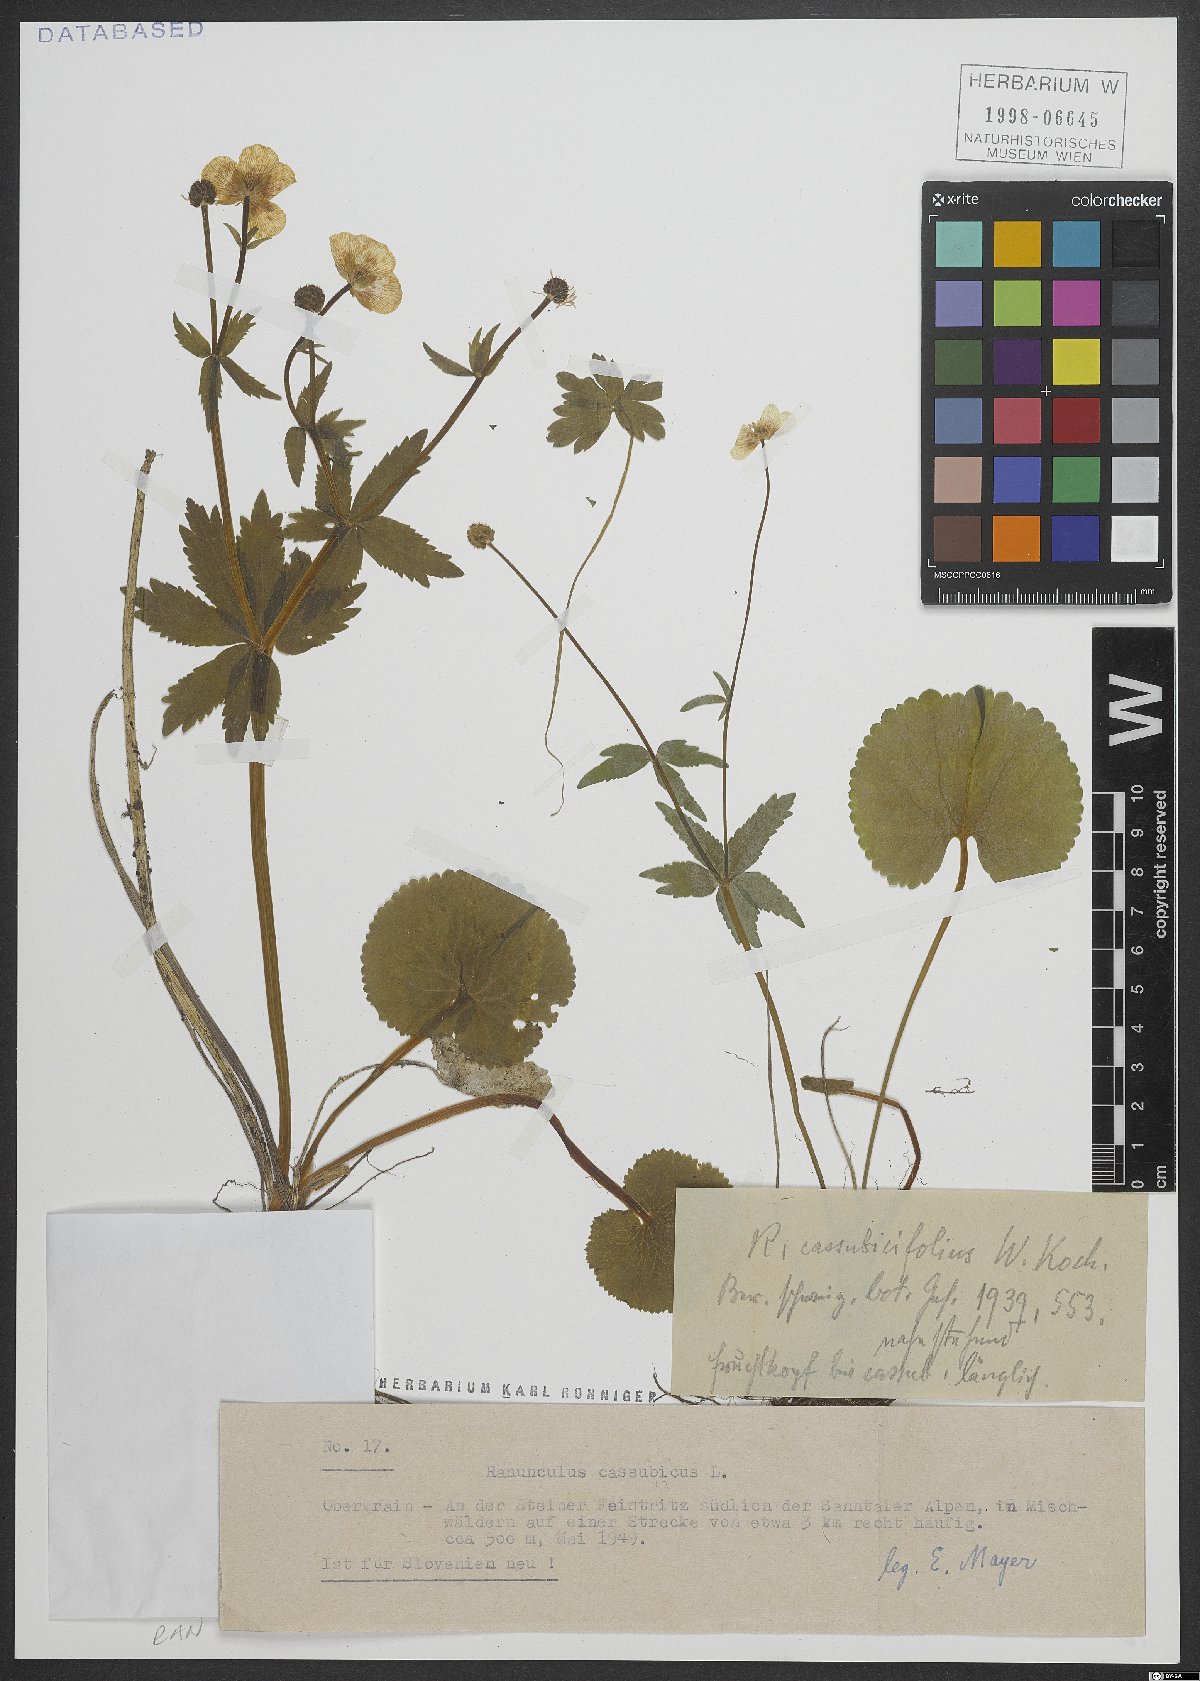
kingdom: Plantae
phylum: Tracheophyta
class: Magnoliopsida
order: Ranunculales
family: Ranunculaceae
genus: Ranunculus
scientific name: Ranunculus cassubicus
